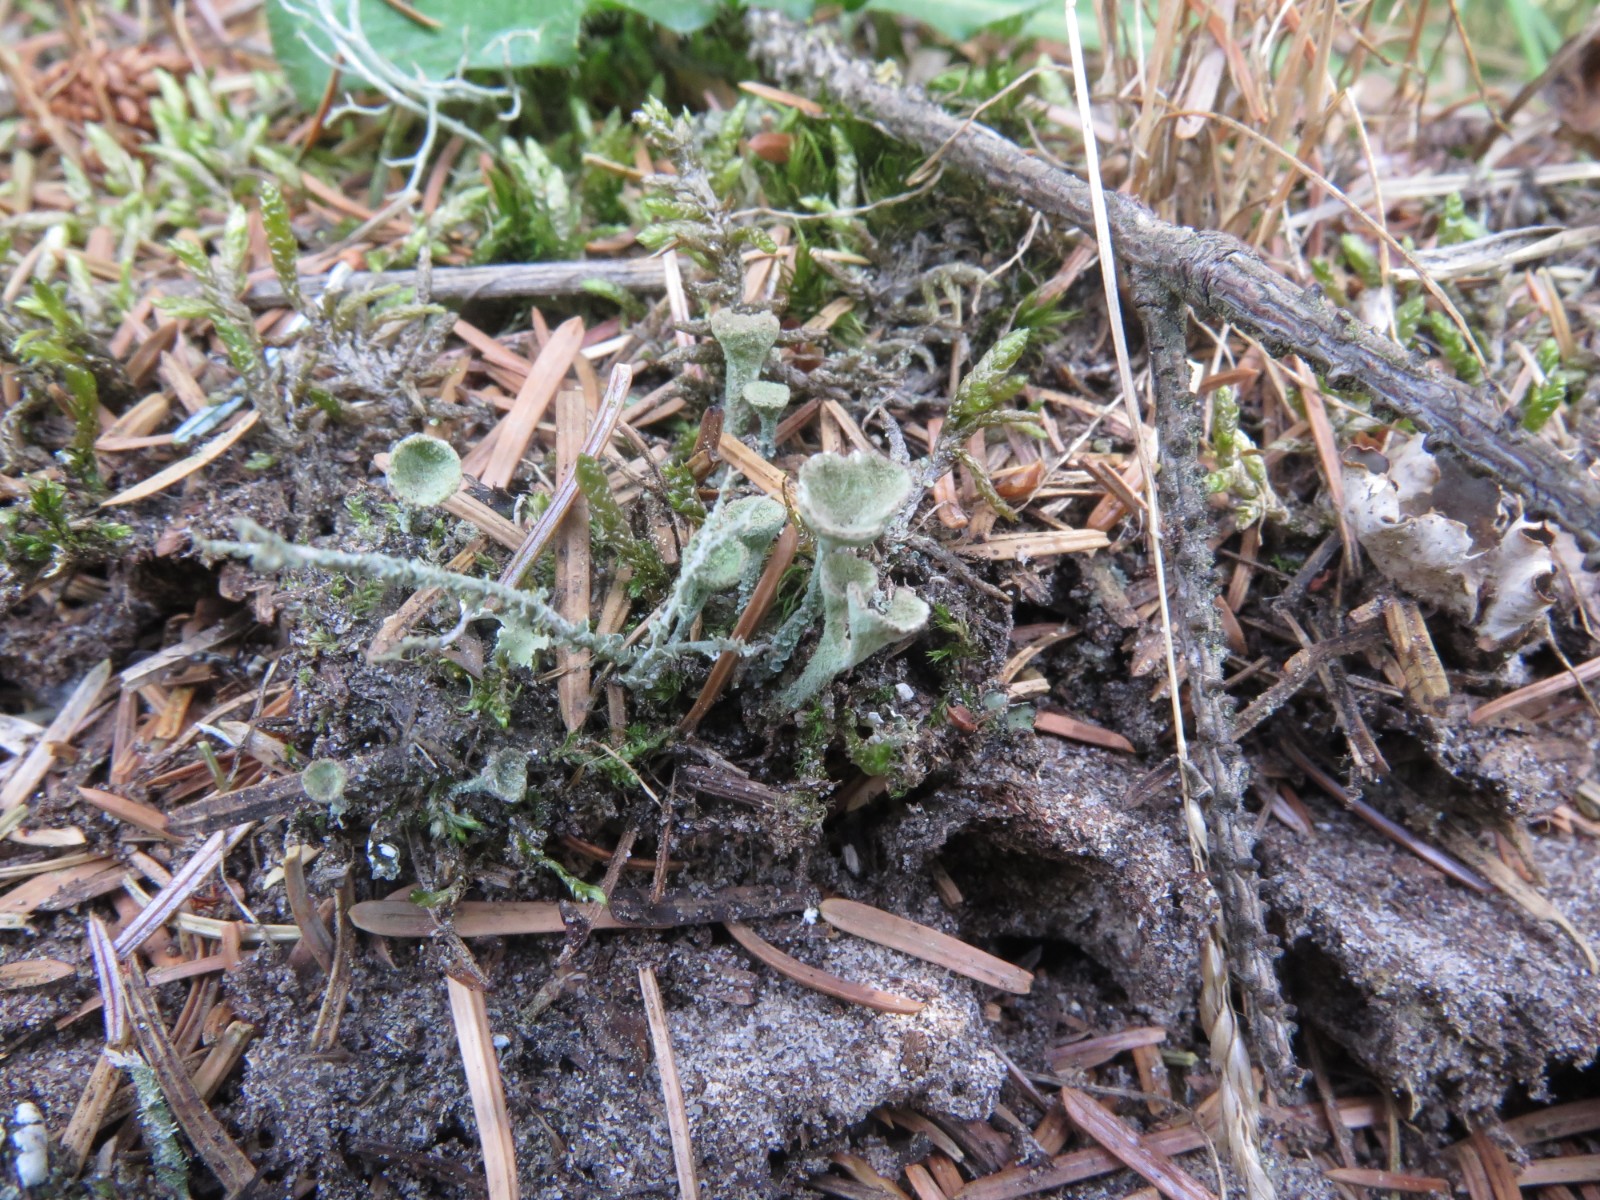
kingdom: Fungi
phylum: Ascomycota
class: Lecanoromycetes
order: Lecanorales
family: Cladoniaceae
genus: Cladonia
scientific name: Cladonia fimbriata
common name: bleggrøn bægerlav
